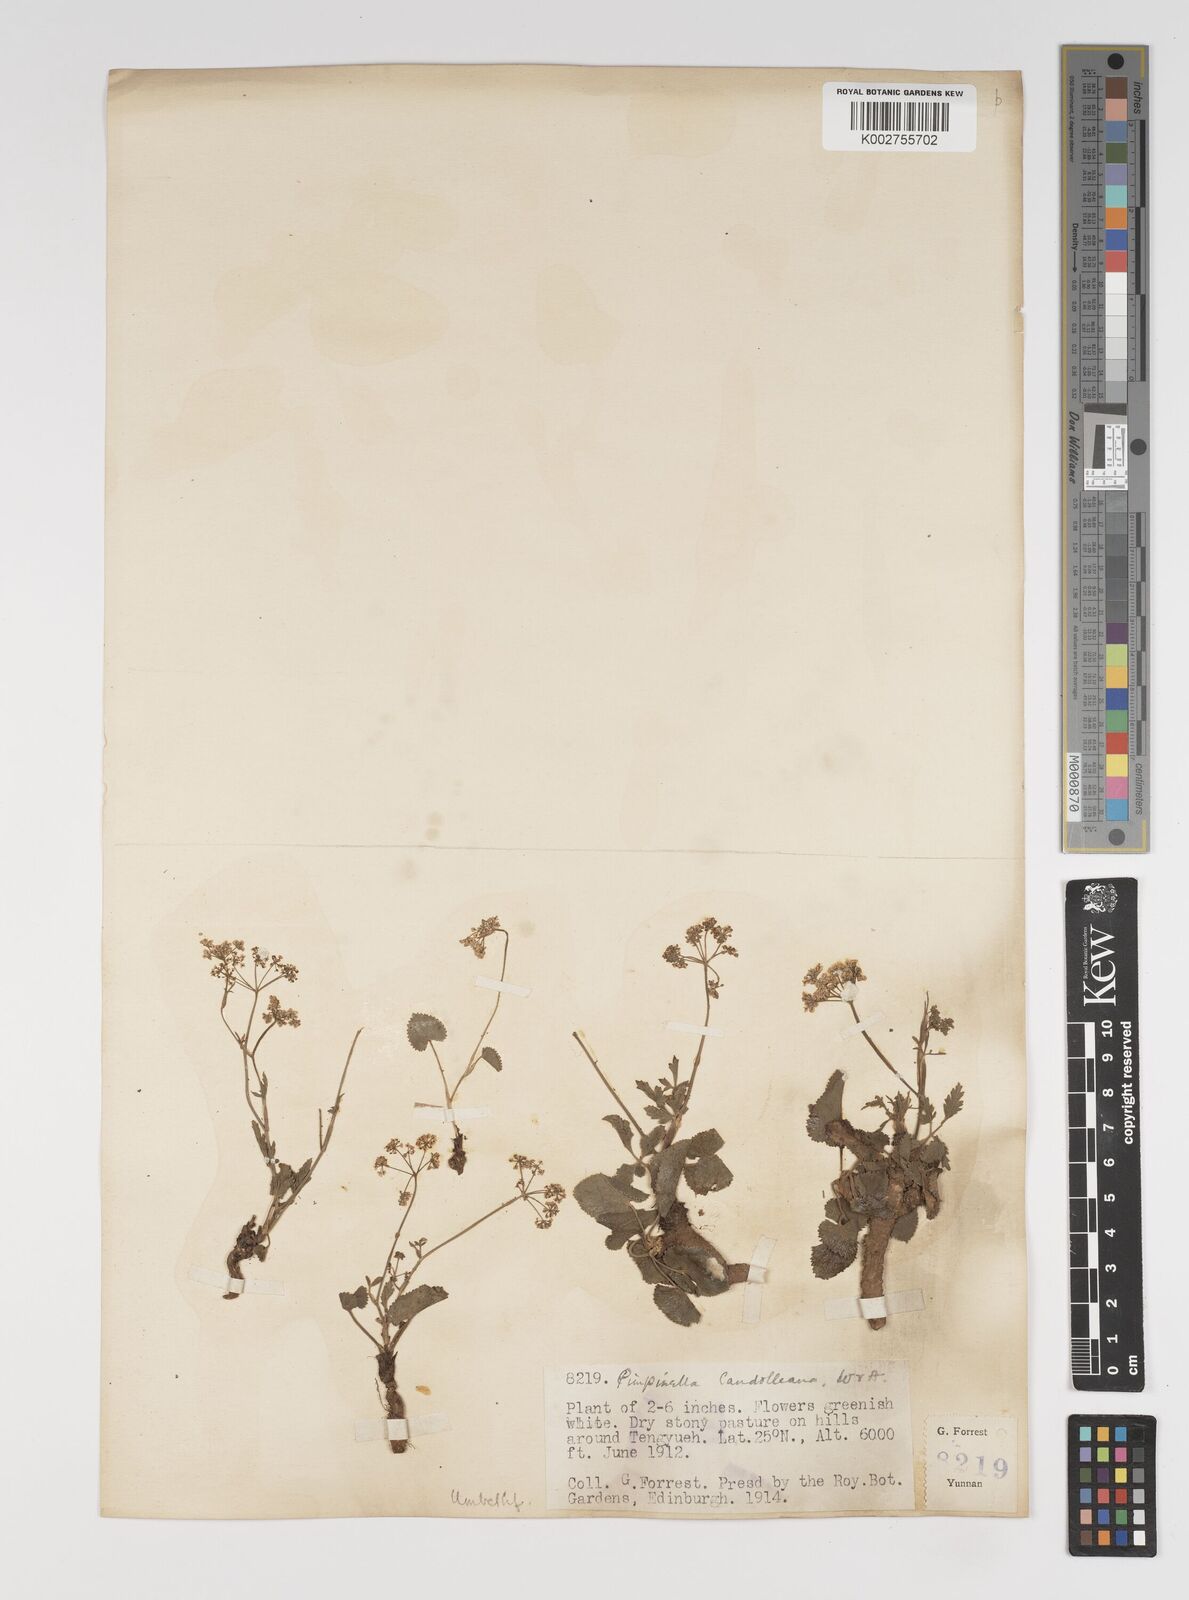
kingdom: Plantae
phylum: Tracheophyta
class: Magnoliopsida
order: Apiales
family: Apiaceae
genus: Pimpinella
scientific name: Pimpinella candolleana
